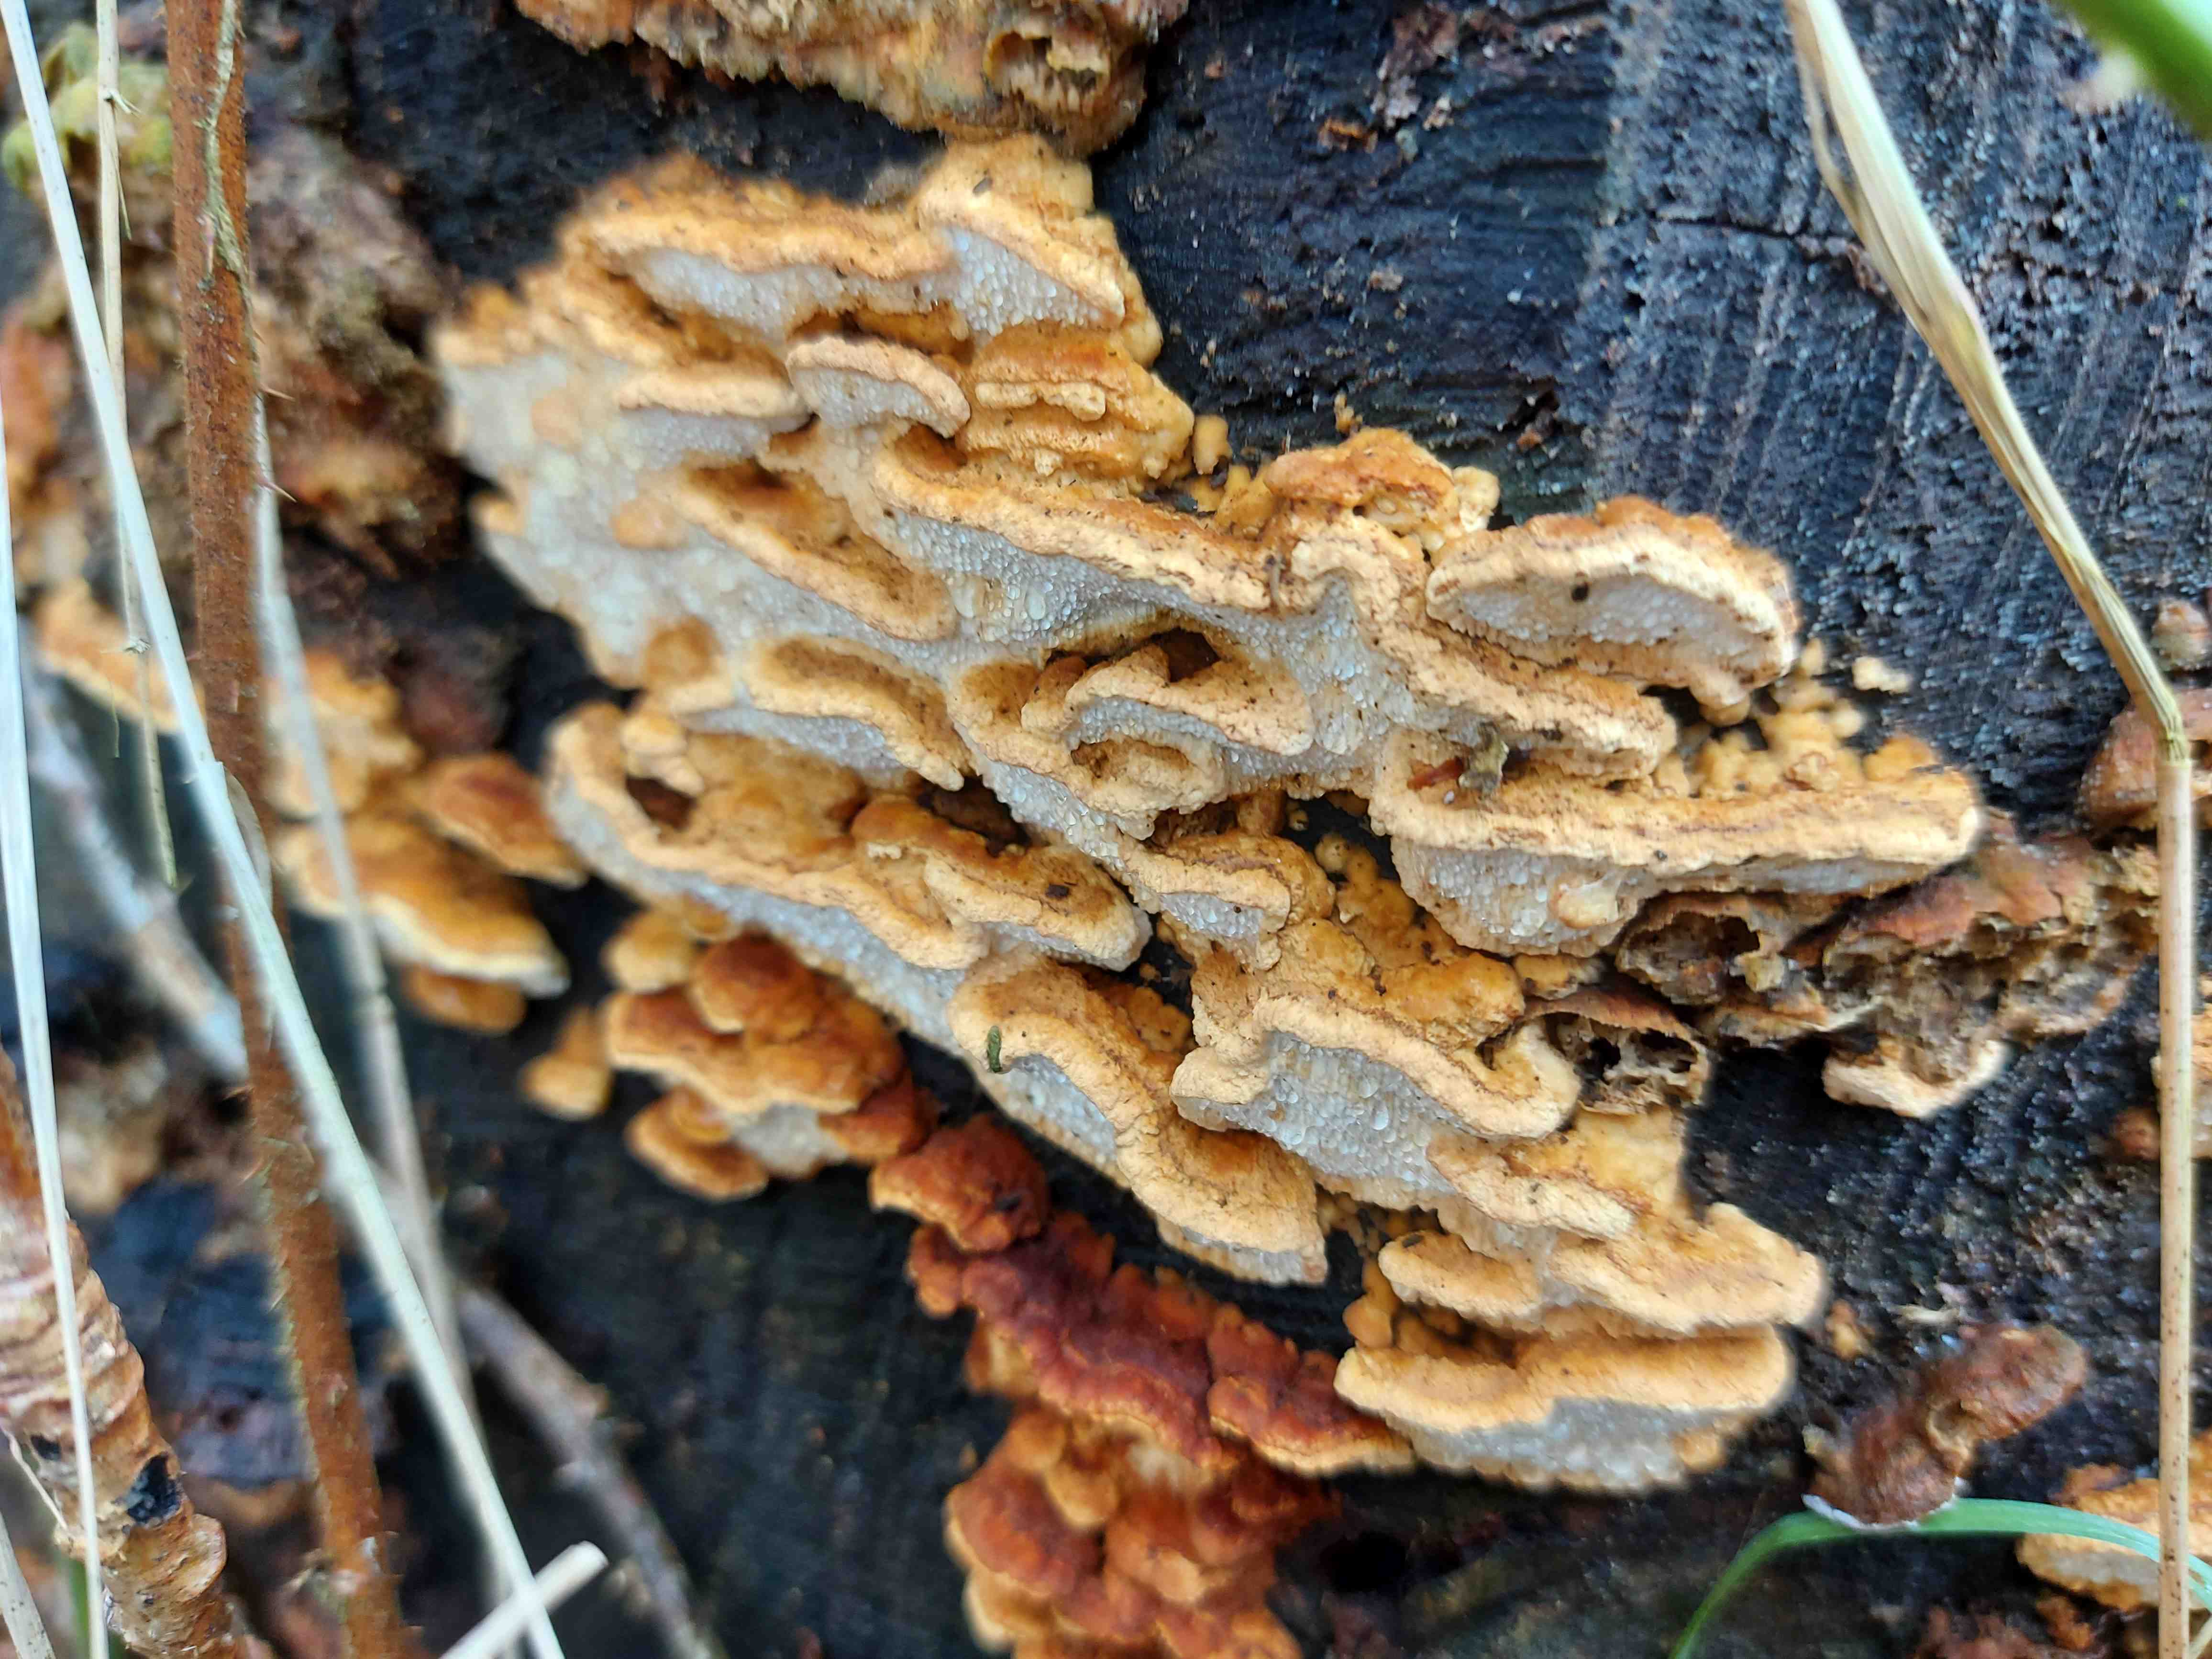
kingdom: Fungi
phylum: Basidiomycota
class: Agaricomycetes
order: Polyporales
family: Fomitopsidaceae
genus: Neoantrodia
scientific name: Neoantrodia serialis
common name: række-sejporesvamp
